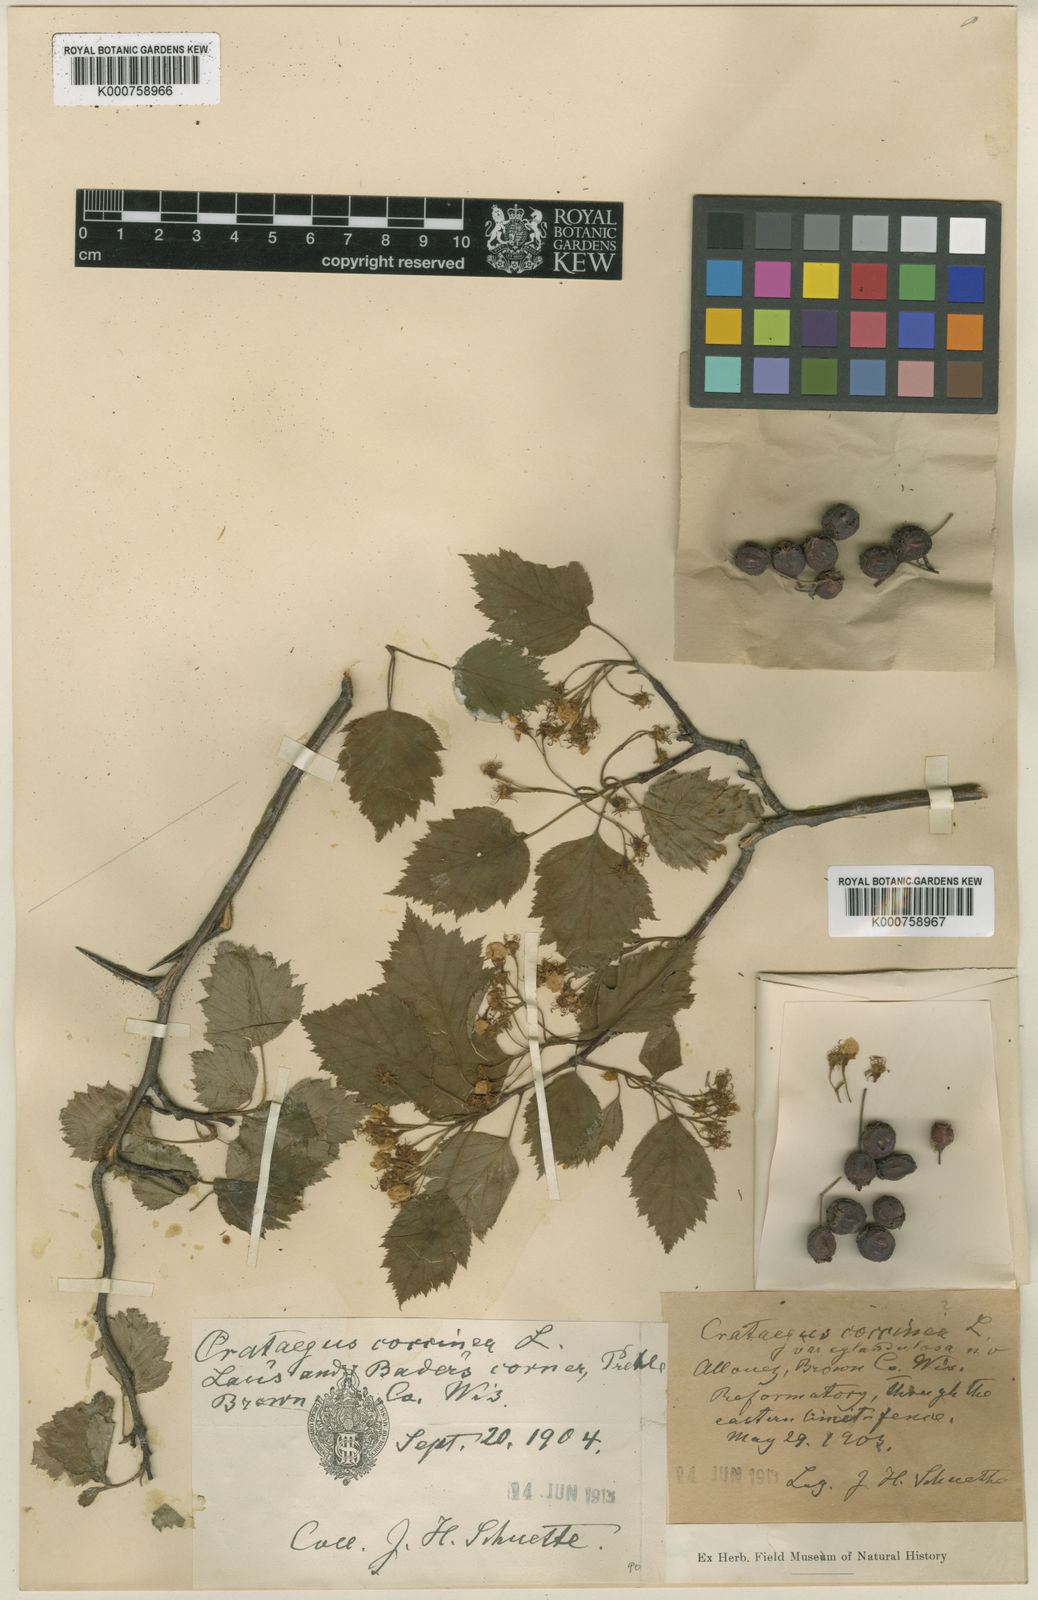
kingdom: Plantae
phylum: Tracheophyta
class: Magnoliopsida
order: Rosales
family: Rosaceae
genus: Crataegus
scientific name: Crataegus
